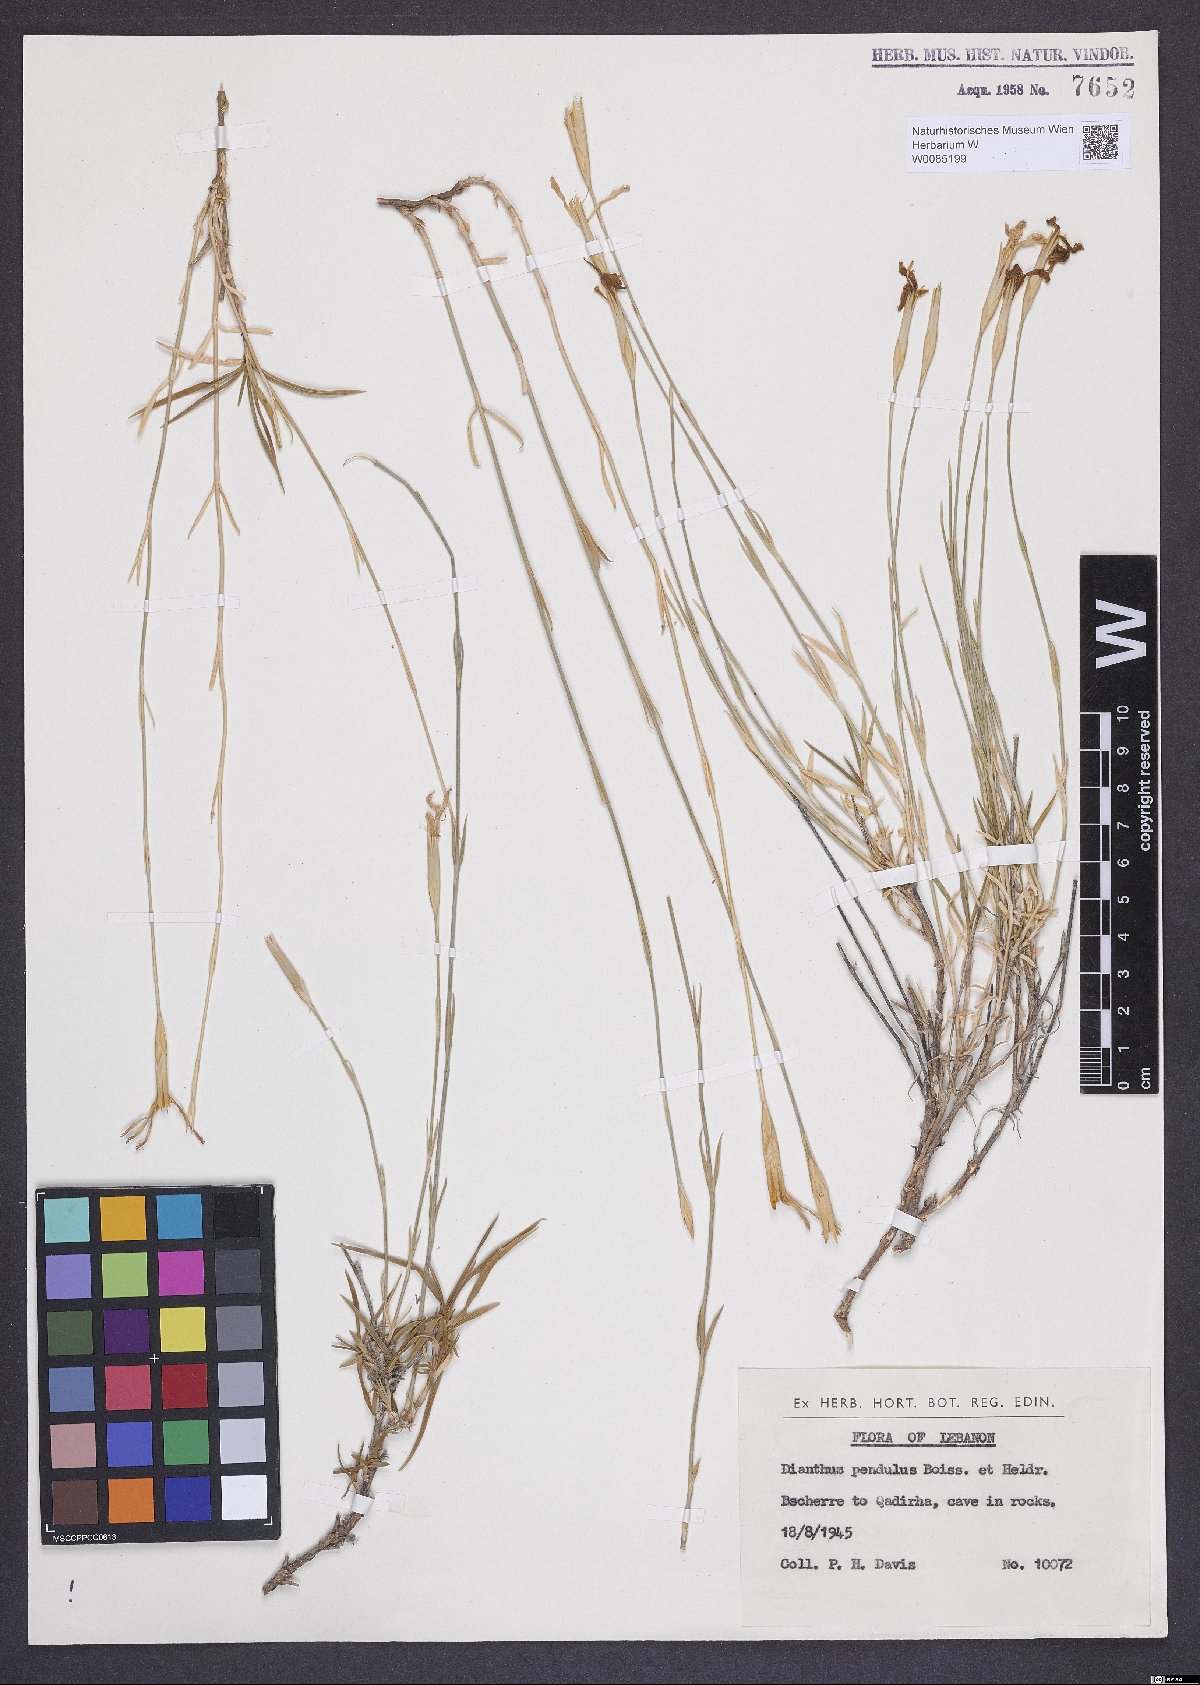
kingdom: Plantae
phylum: Tracheophyta
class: Magnoliopsida
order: Caryophyllales
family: Caryophyllaceae
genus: Dianthus
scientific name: Dianthus pendulus
